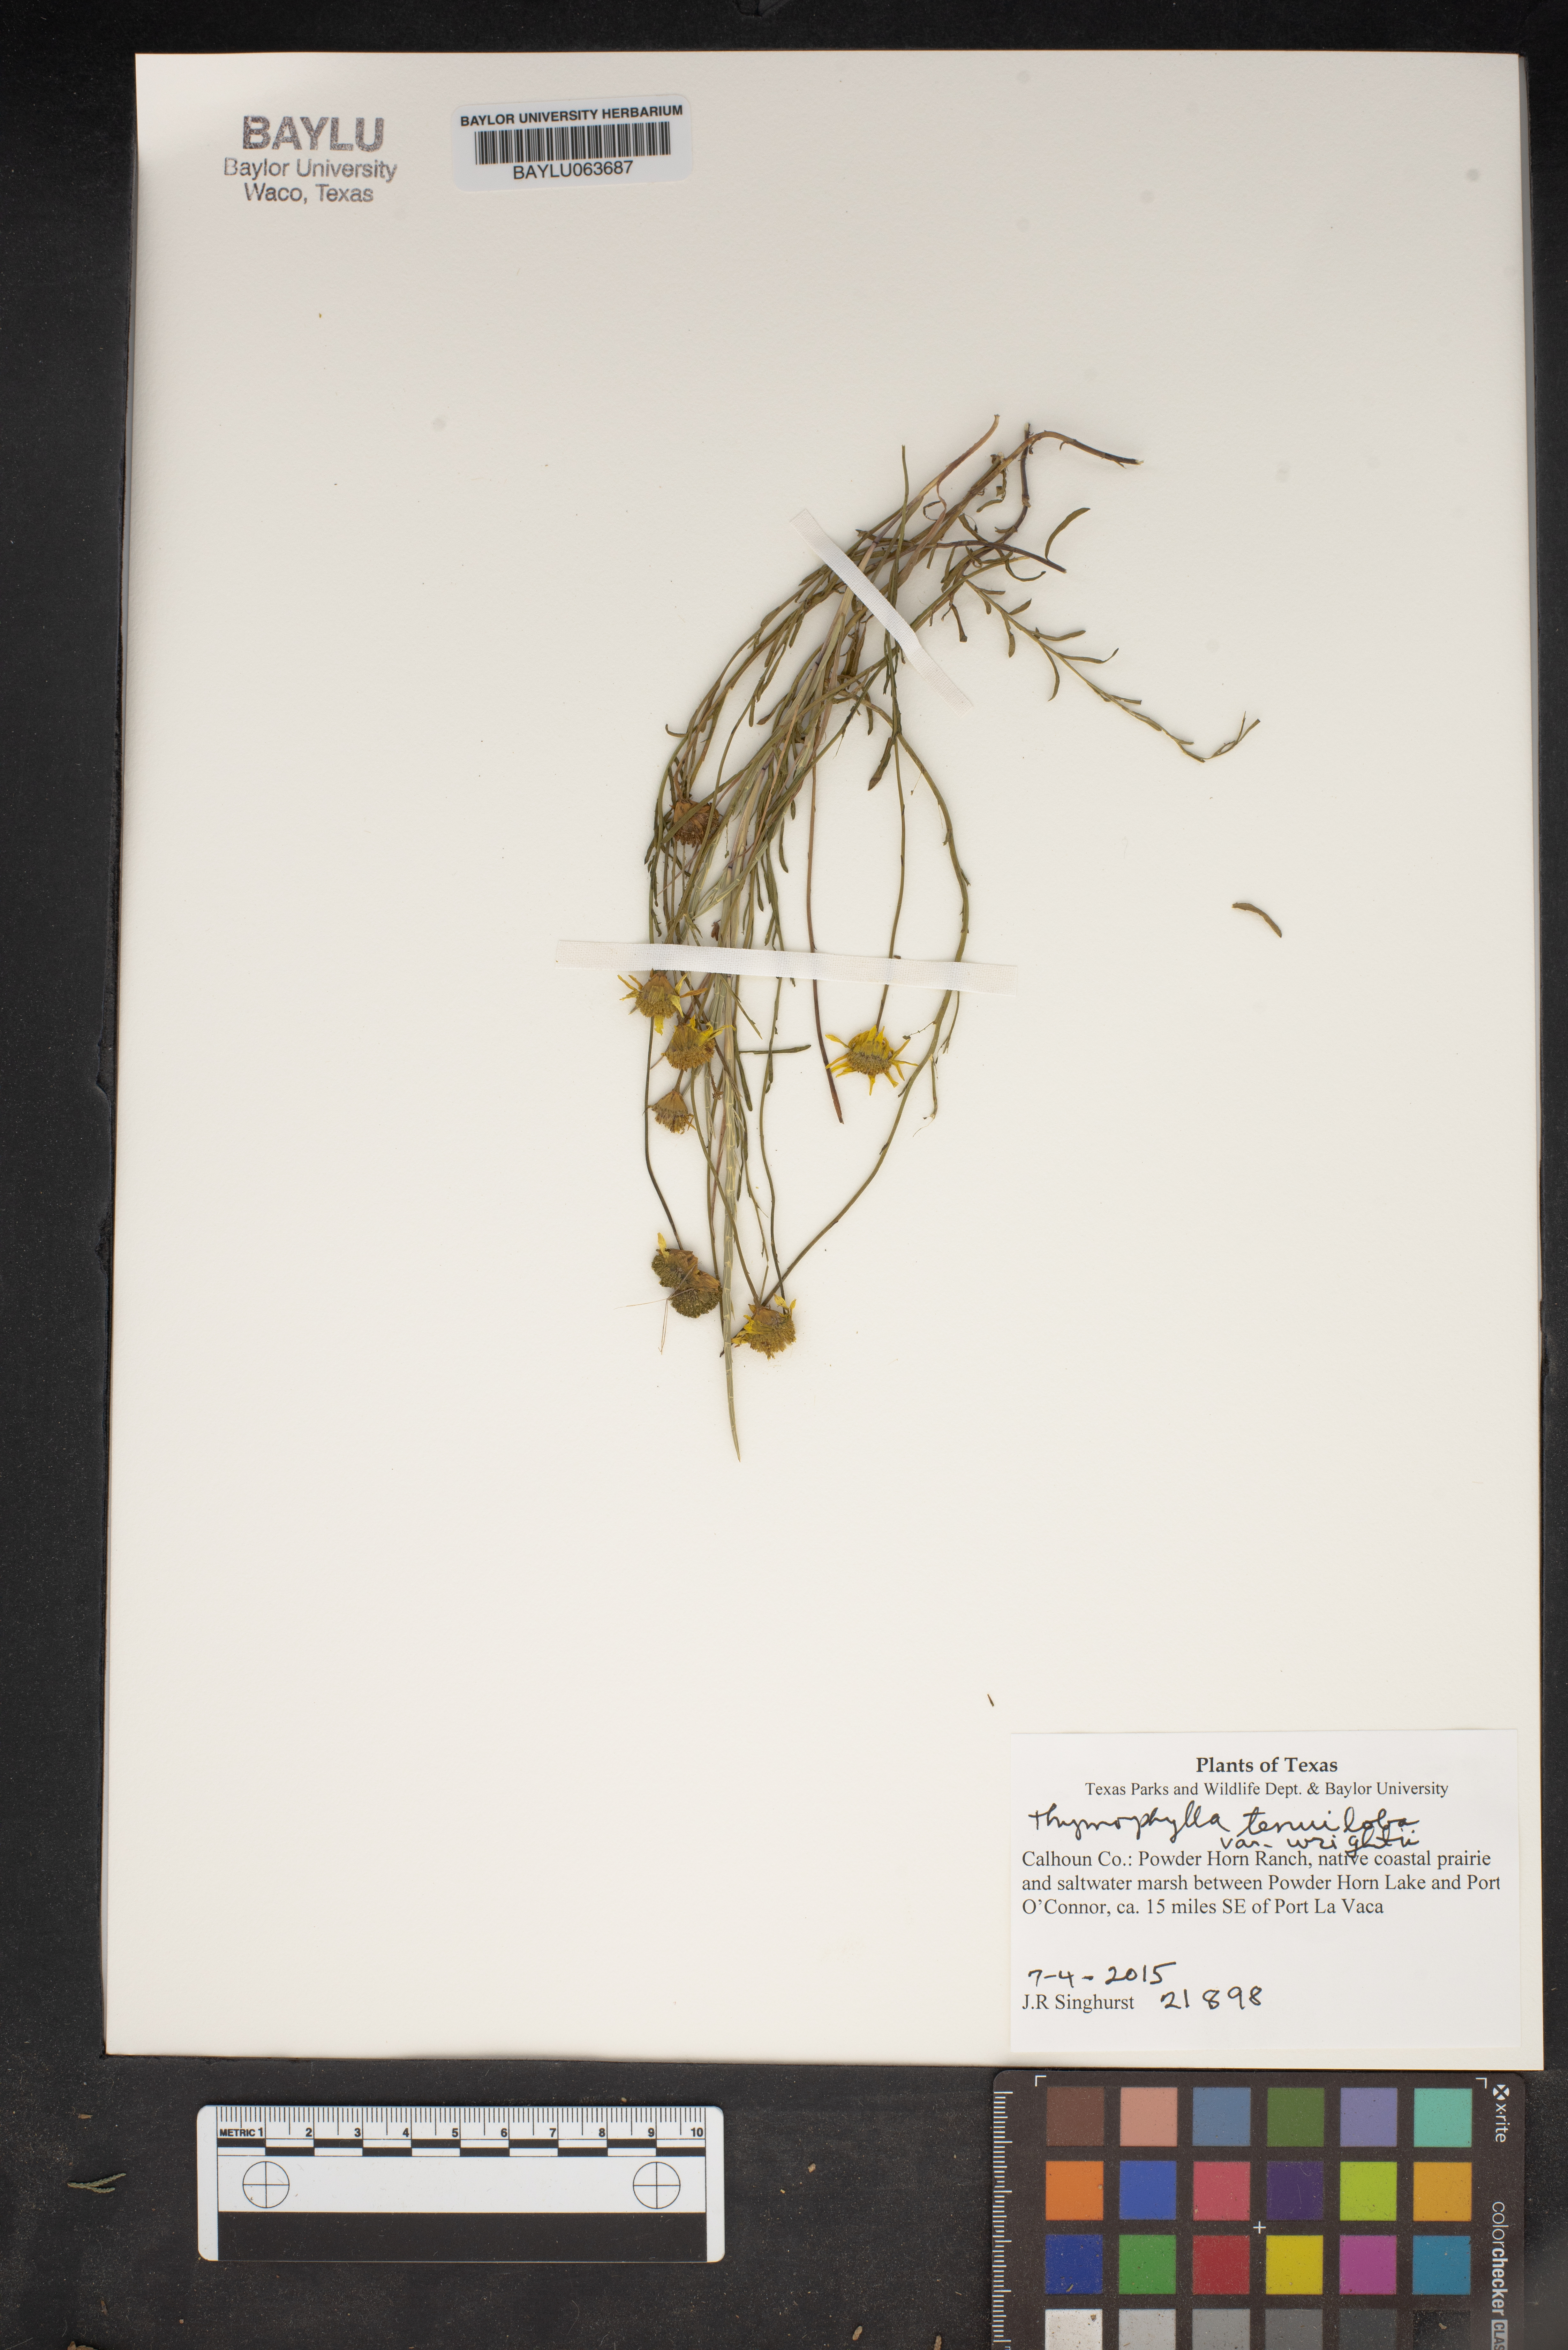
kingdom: Plantae
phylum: Tracheophyta
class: Magnoliopsida
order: Asterales
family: Asteraceae
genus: Thymophylla
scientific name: Thymophylla tenuiloba
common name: Dahlberg's daisy
